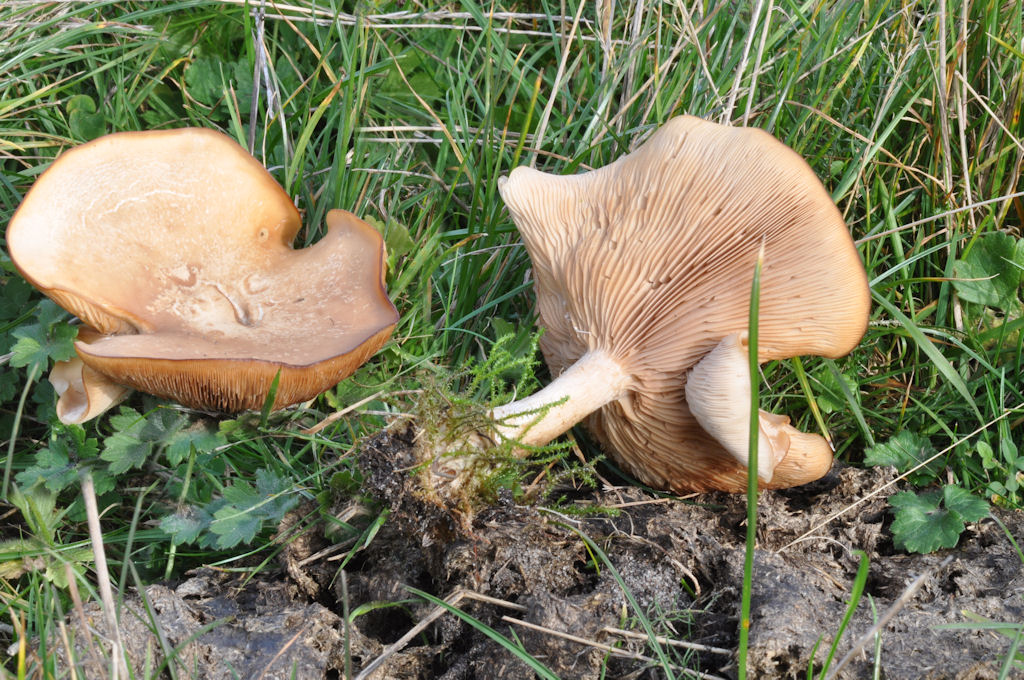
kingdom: Fungi
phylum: Basidiomycota
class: Agaricomycetes
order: Agaricales
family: Tricholomataceae
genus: Lepista
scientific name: Lepista irina
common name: violduftende hekseringshat
